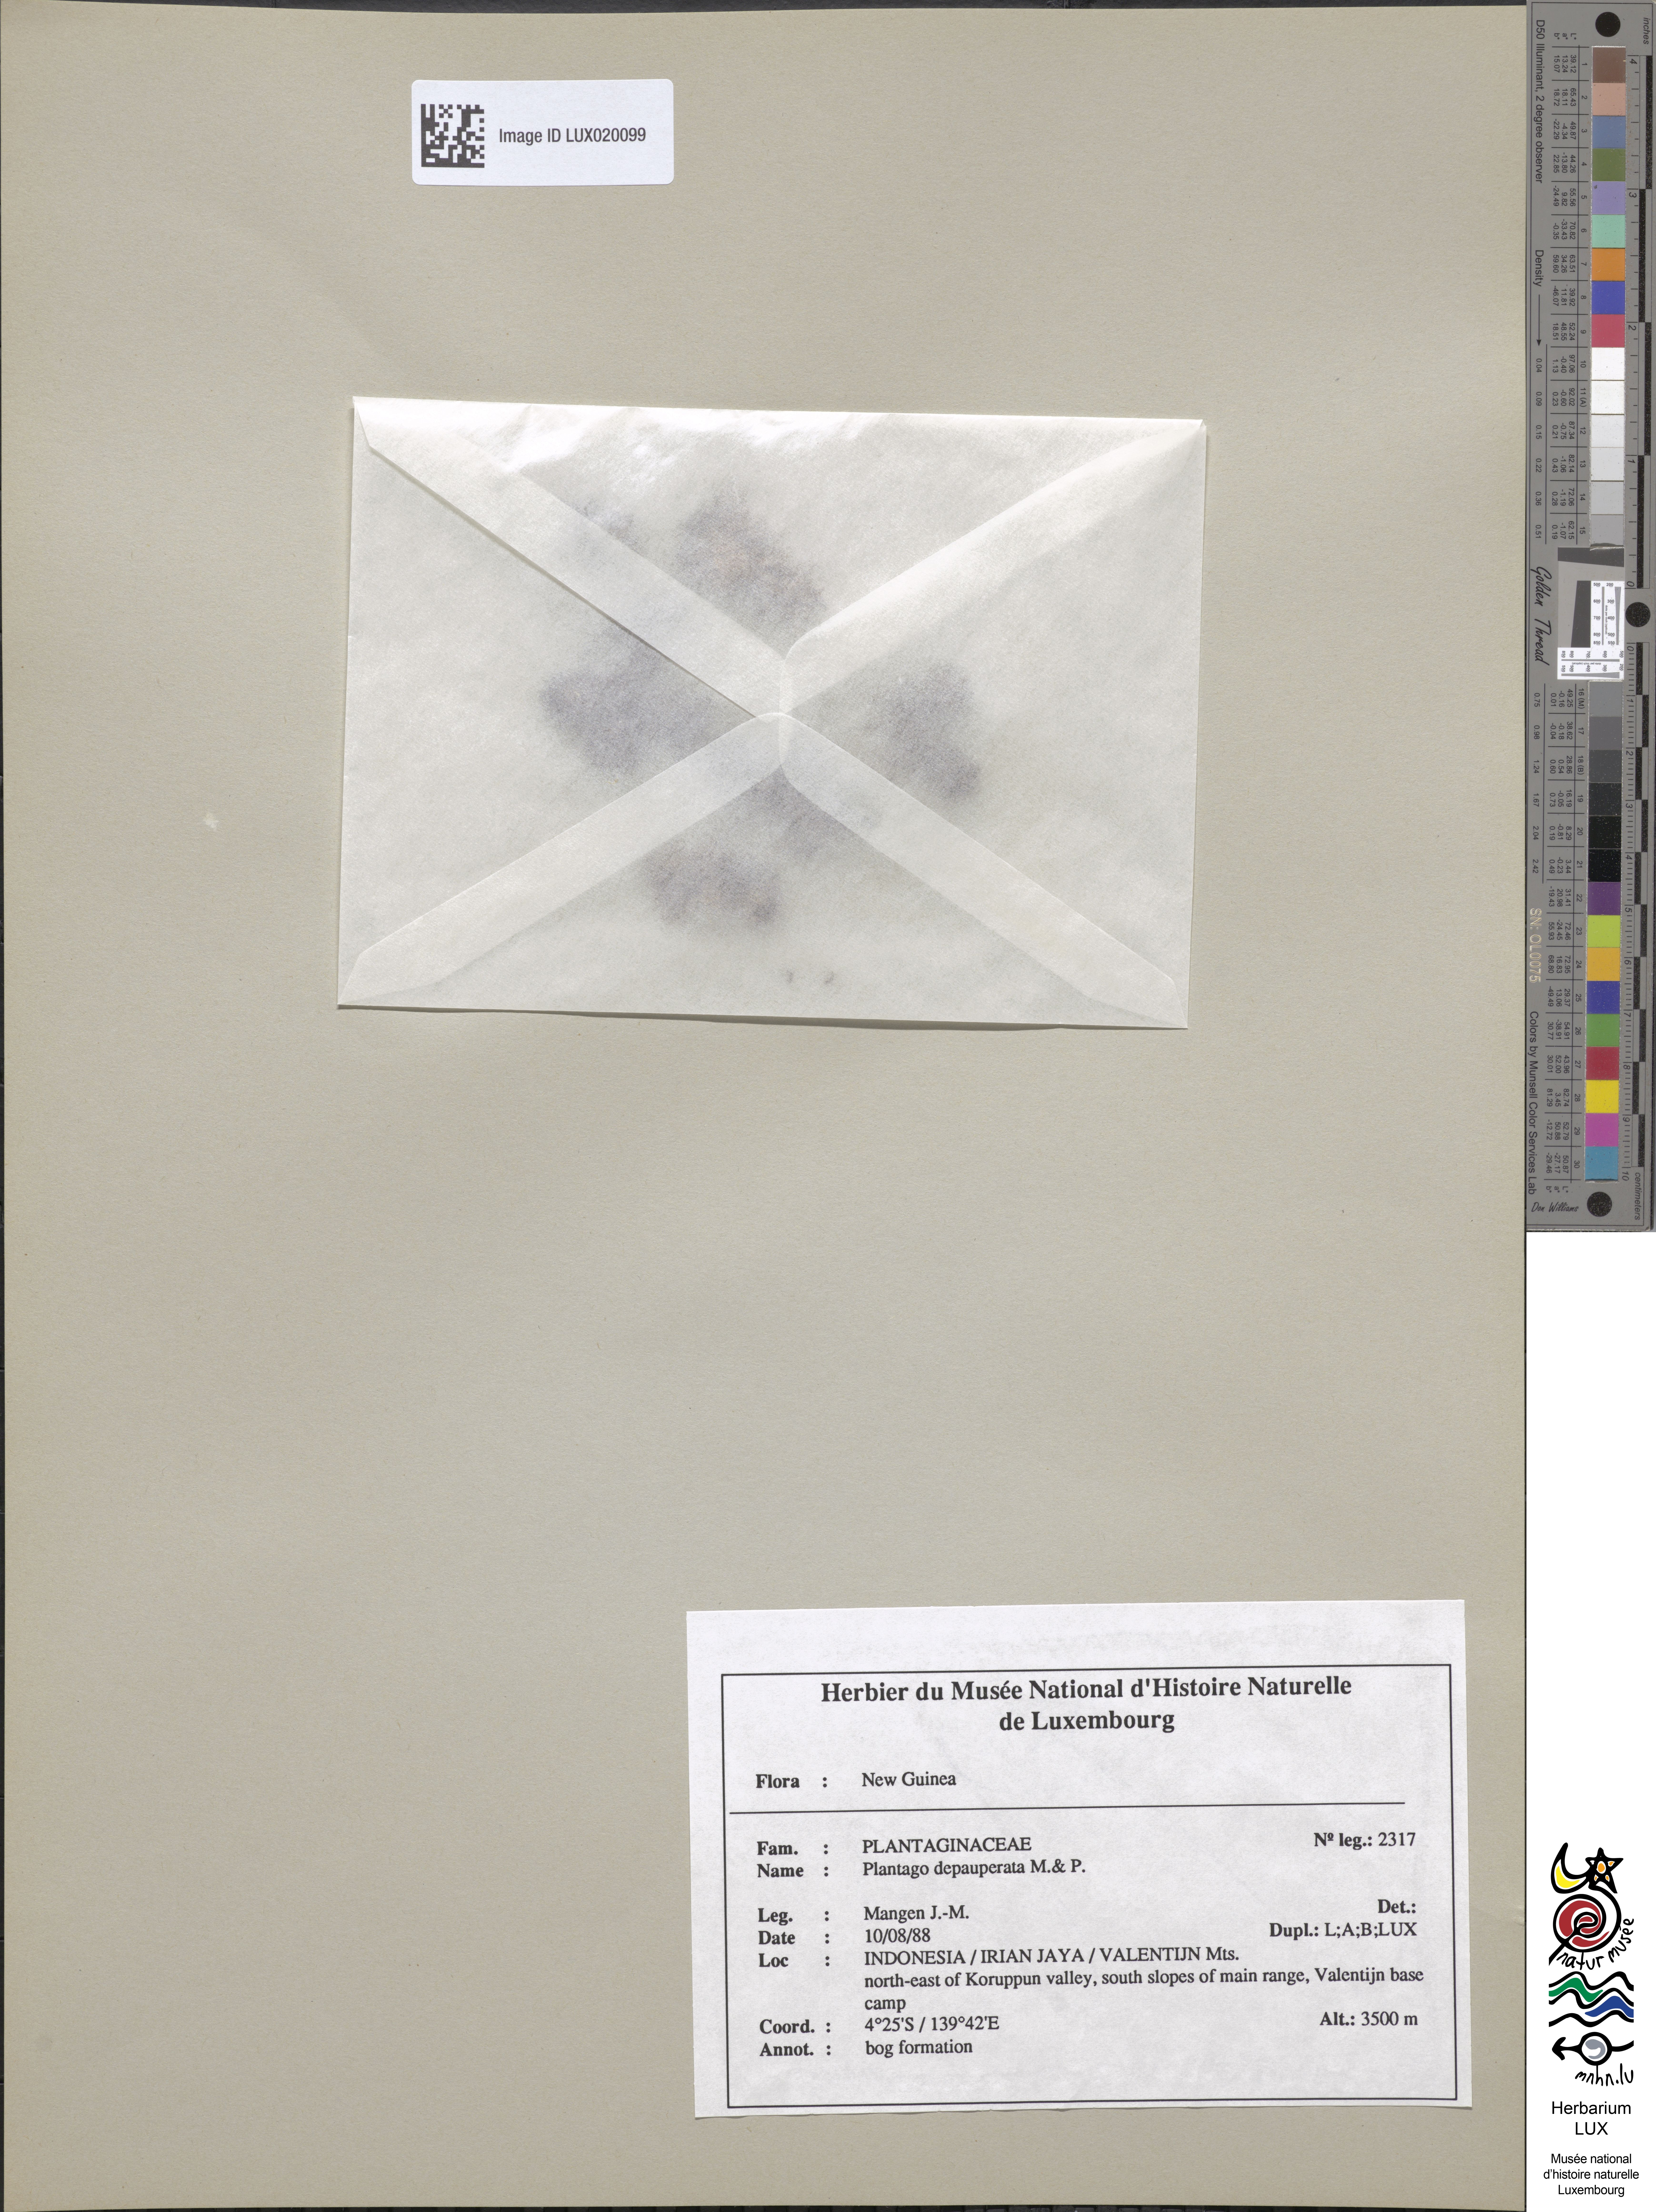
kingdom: Plantae
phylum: Tracheophyta
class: Magnoliopsida
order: Lamiales
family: Plantaginaceae
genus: Plantago
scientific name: Plantago depauperata
